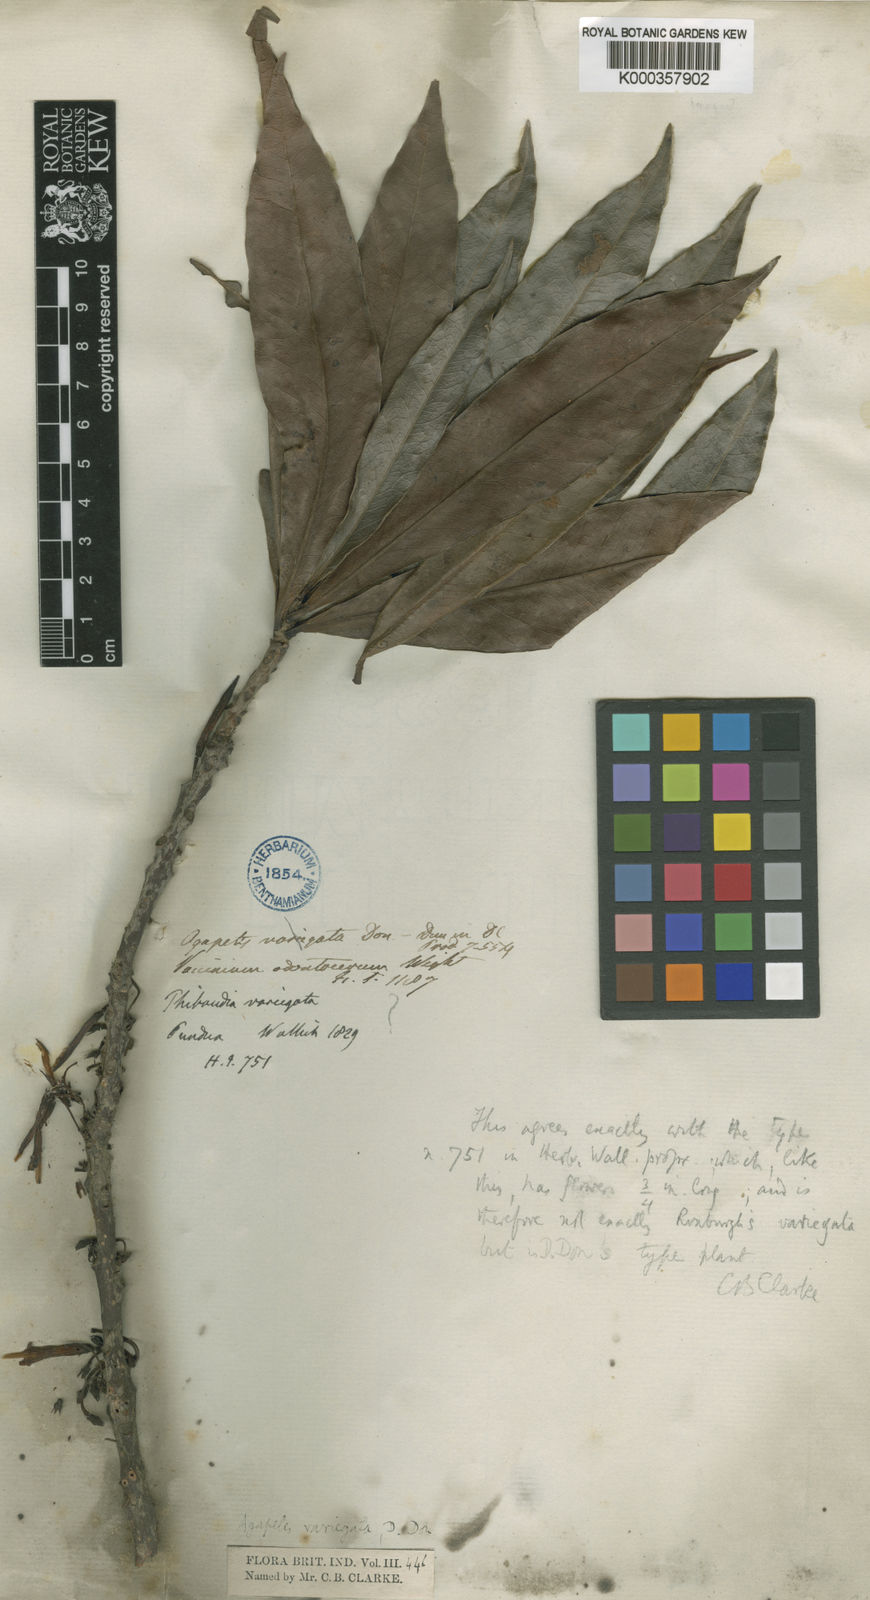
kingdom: Plantae
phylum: Tracheophyta
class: Magnoliopsida
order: Ericales
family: Ericaceae
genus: Agapetes
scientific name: Agapetes odontocera
